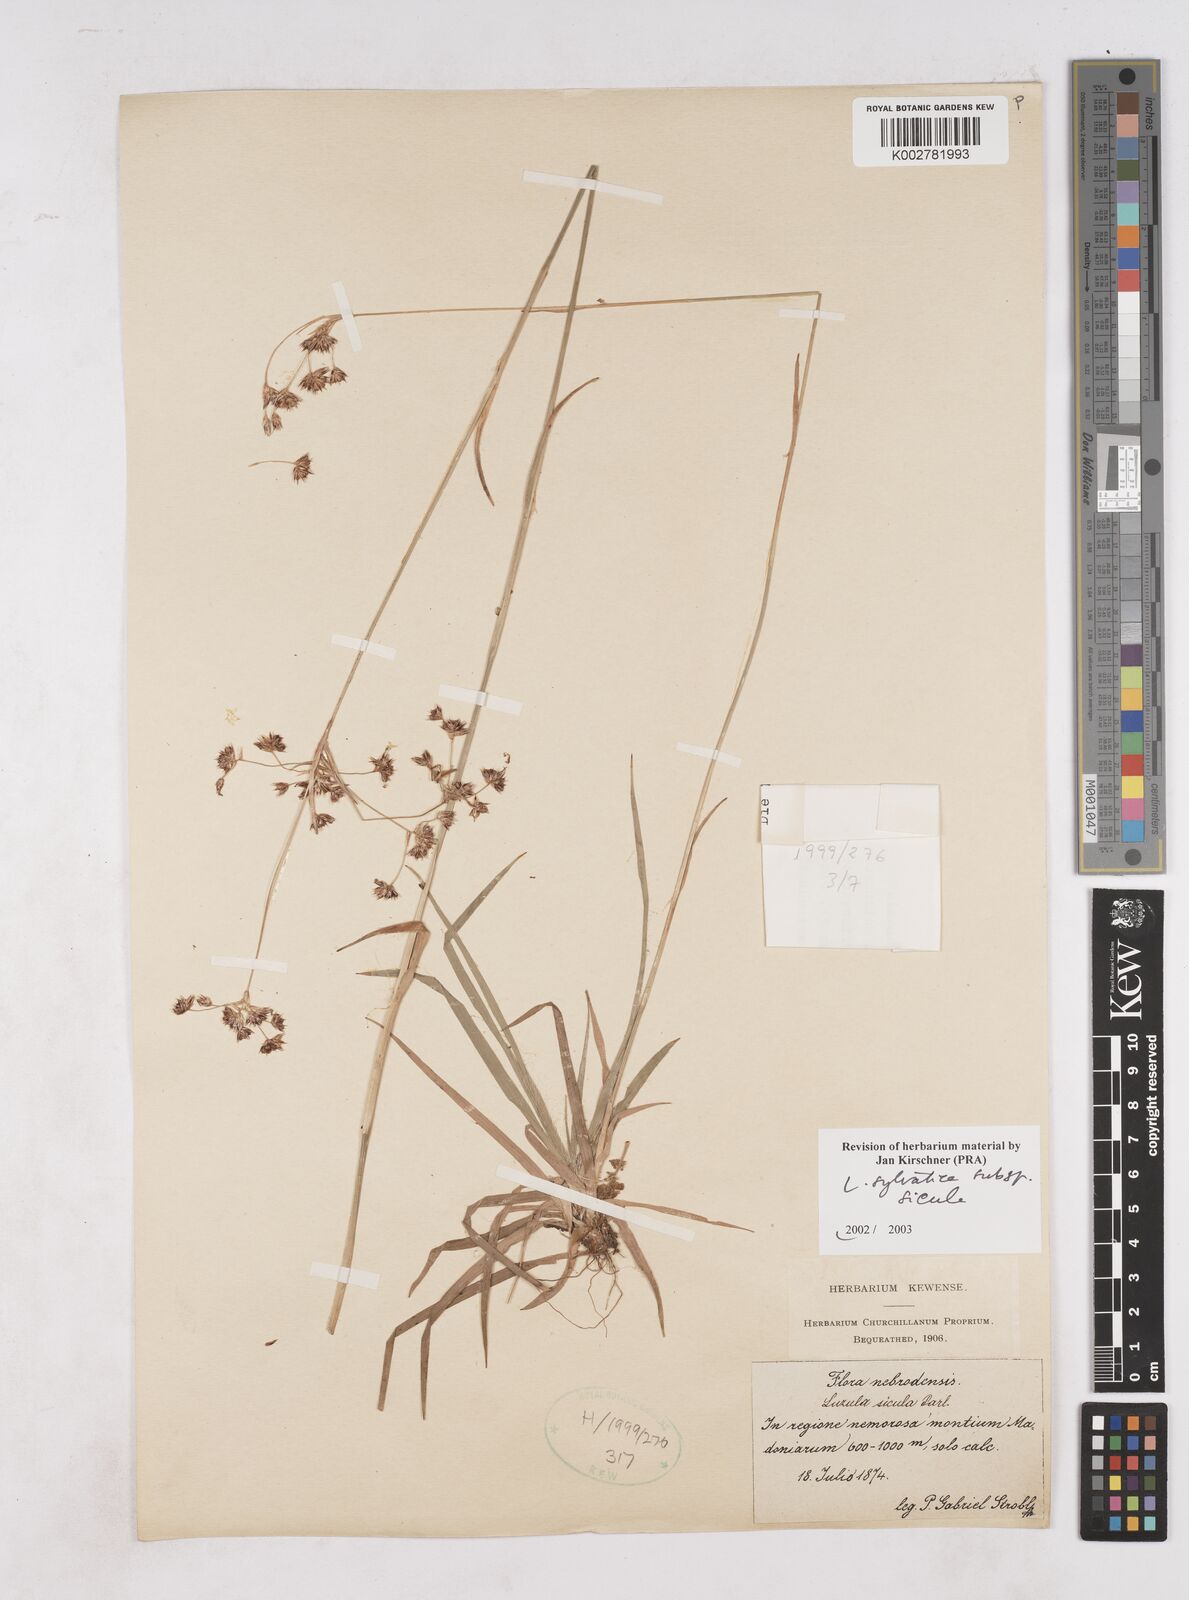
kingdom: Plantae
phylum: Tracheophyta
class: Liliopsida
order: Poales
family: Juncaceae
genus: Luzula
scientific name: Luzula sylvatica
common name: Great wood-rush
